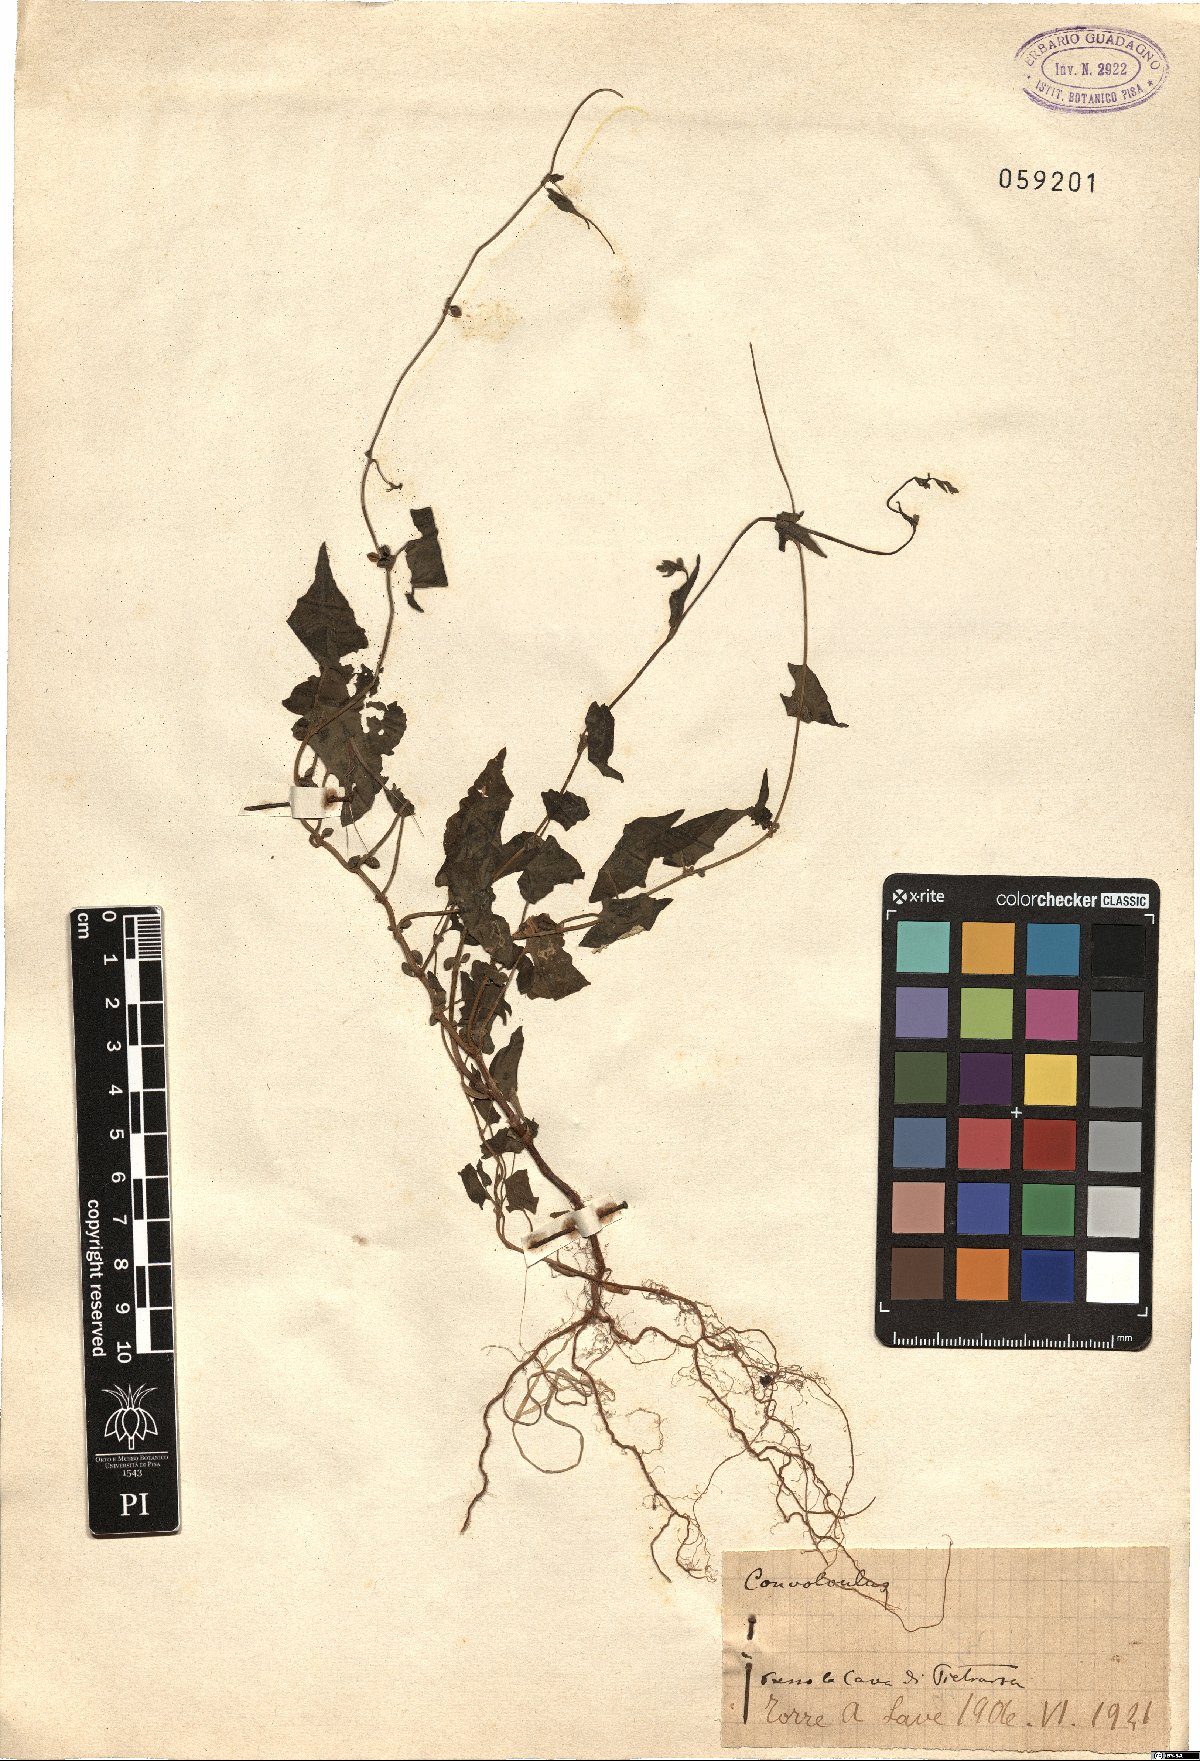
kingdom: Plantae
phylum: Tracheophyta
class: Magnoliopsida
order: Solanales
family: Convolvulaceae
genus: Convolvulus
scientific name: Convolvulus
